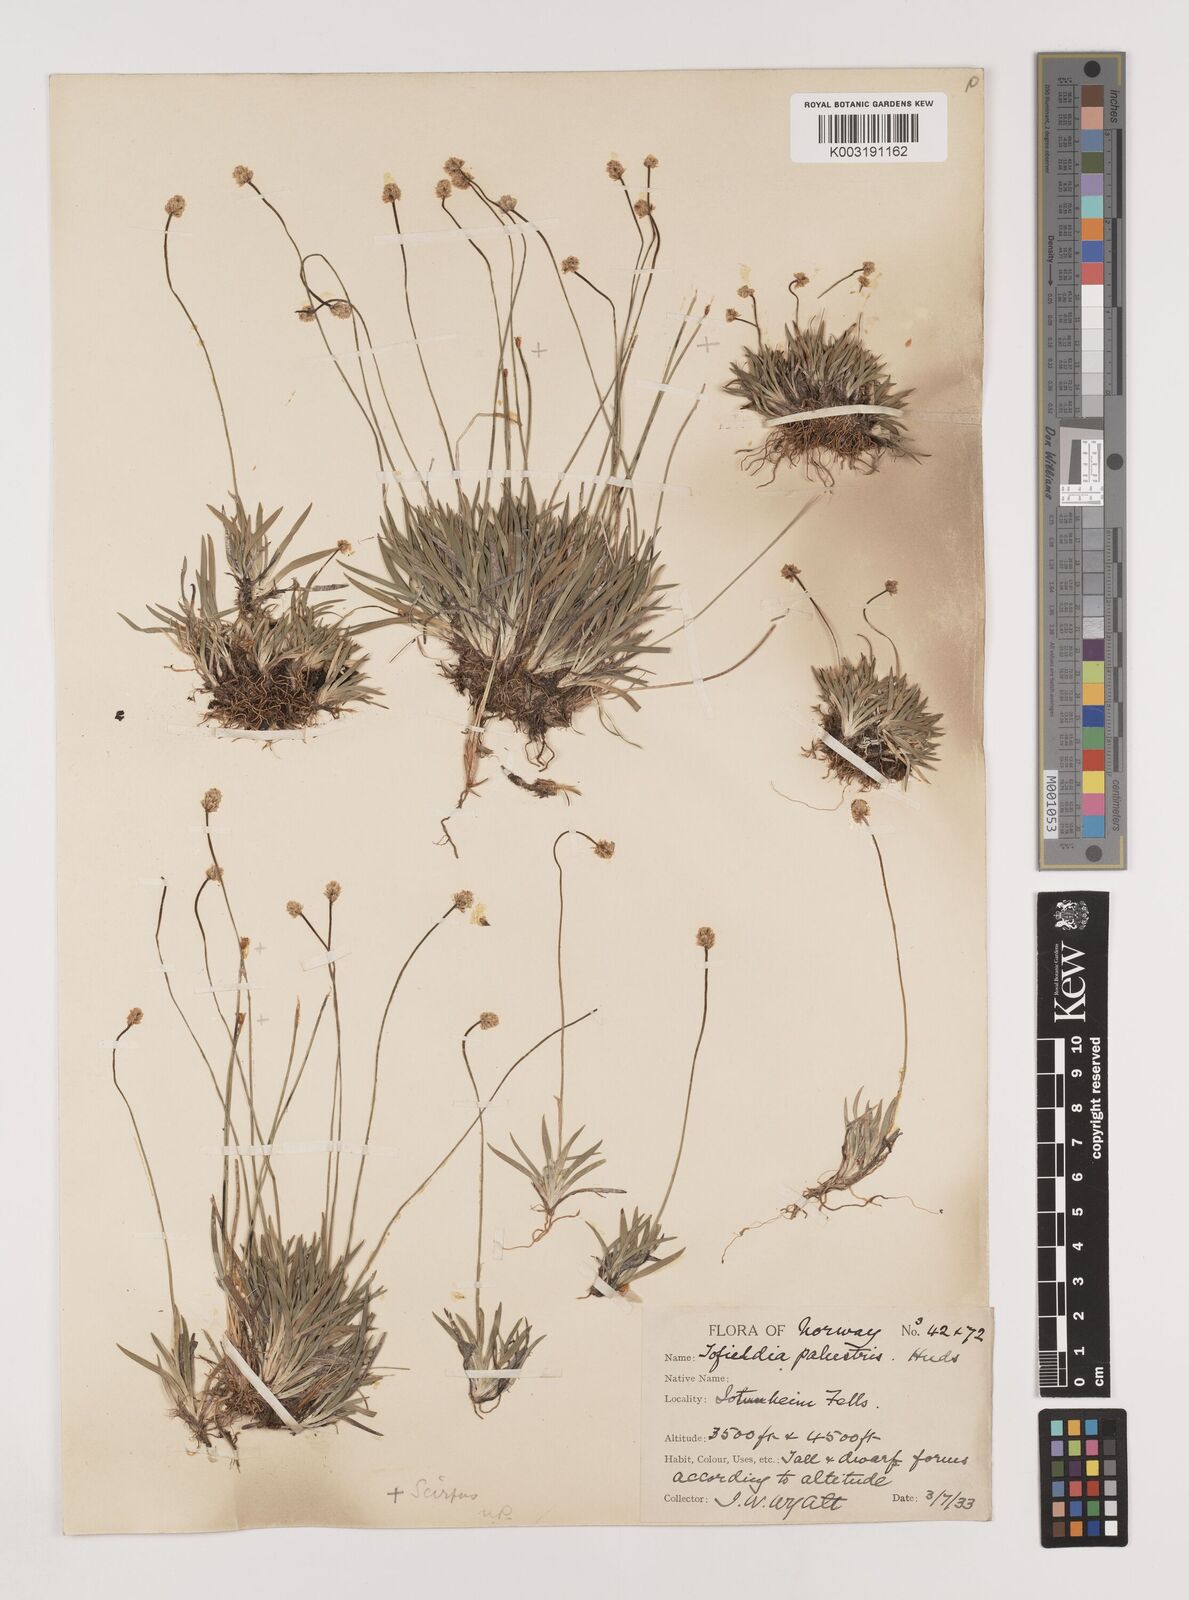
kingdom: Plantae
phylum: Tracheophyta
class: Liliopsida
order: Alismatales
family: Tofieldiaceae
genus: Tofieldia
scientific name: Tofieldia pusilla
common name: Scottish false asphodel
